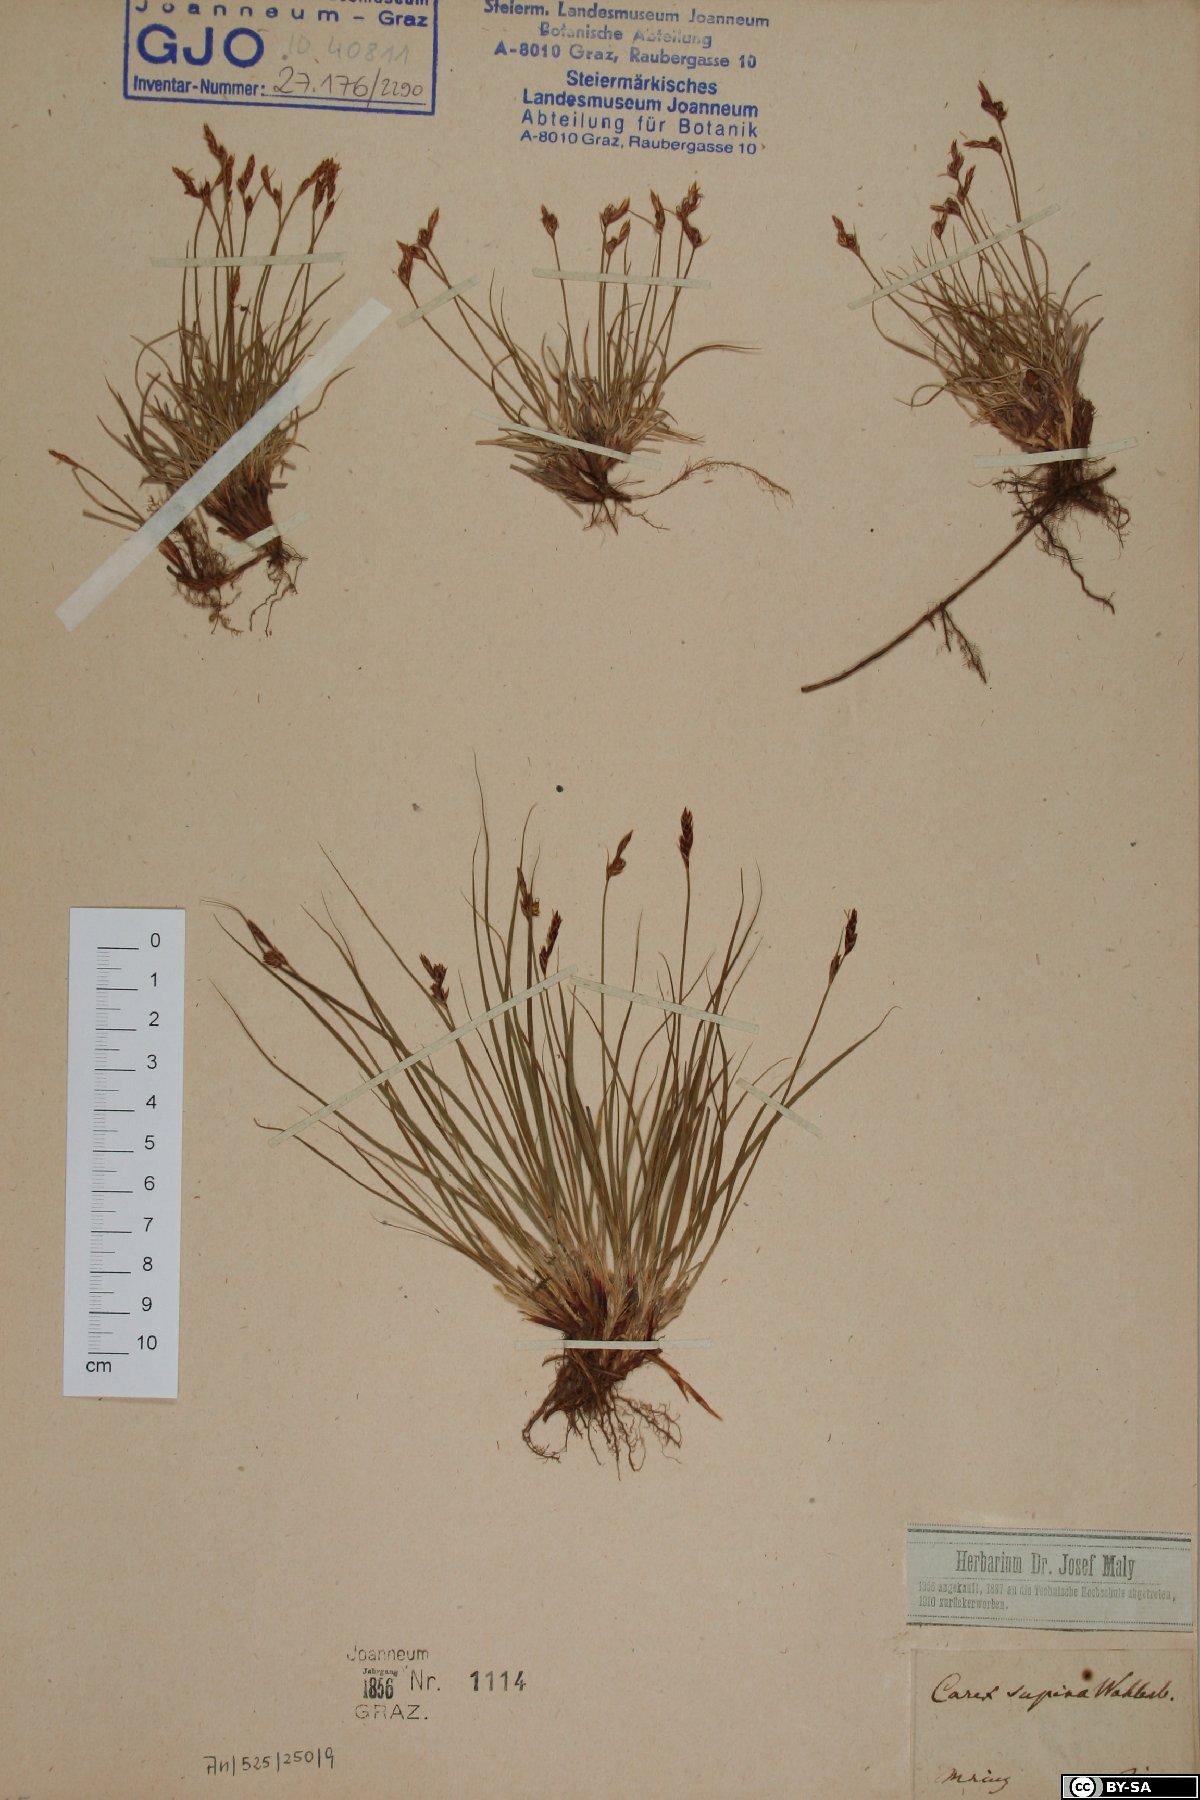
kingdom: Plantae
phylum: Tracheophyta
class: Liliopsida
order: Poales
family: Cyperaceae
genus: Carex
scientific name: Carex supina
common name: Lying-back sedge
